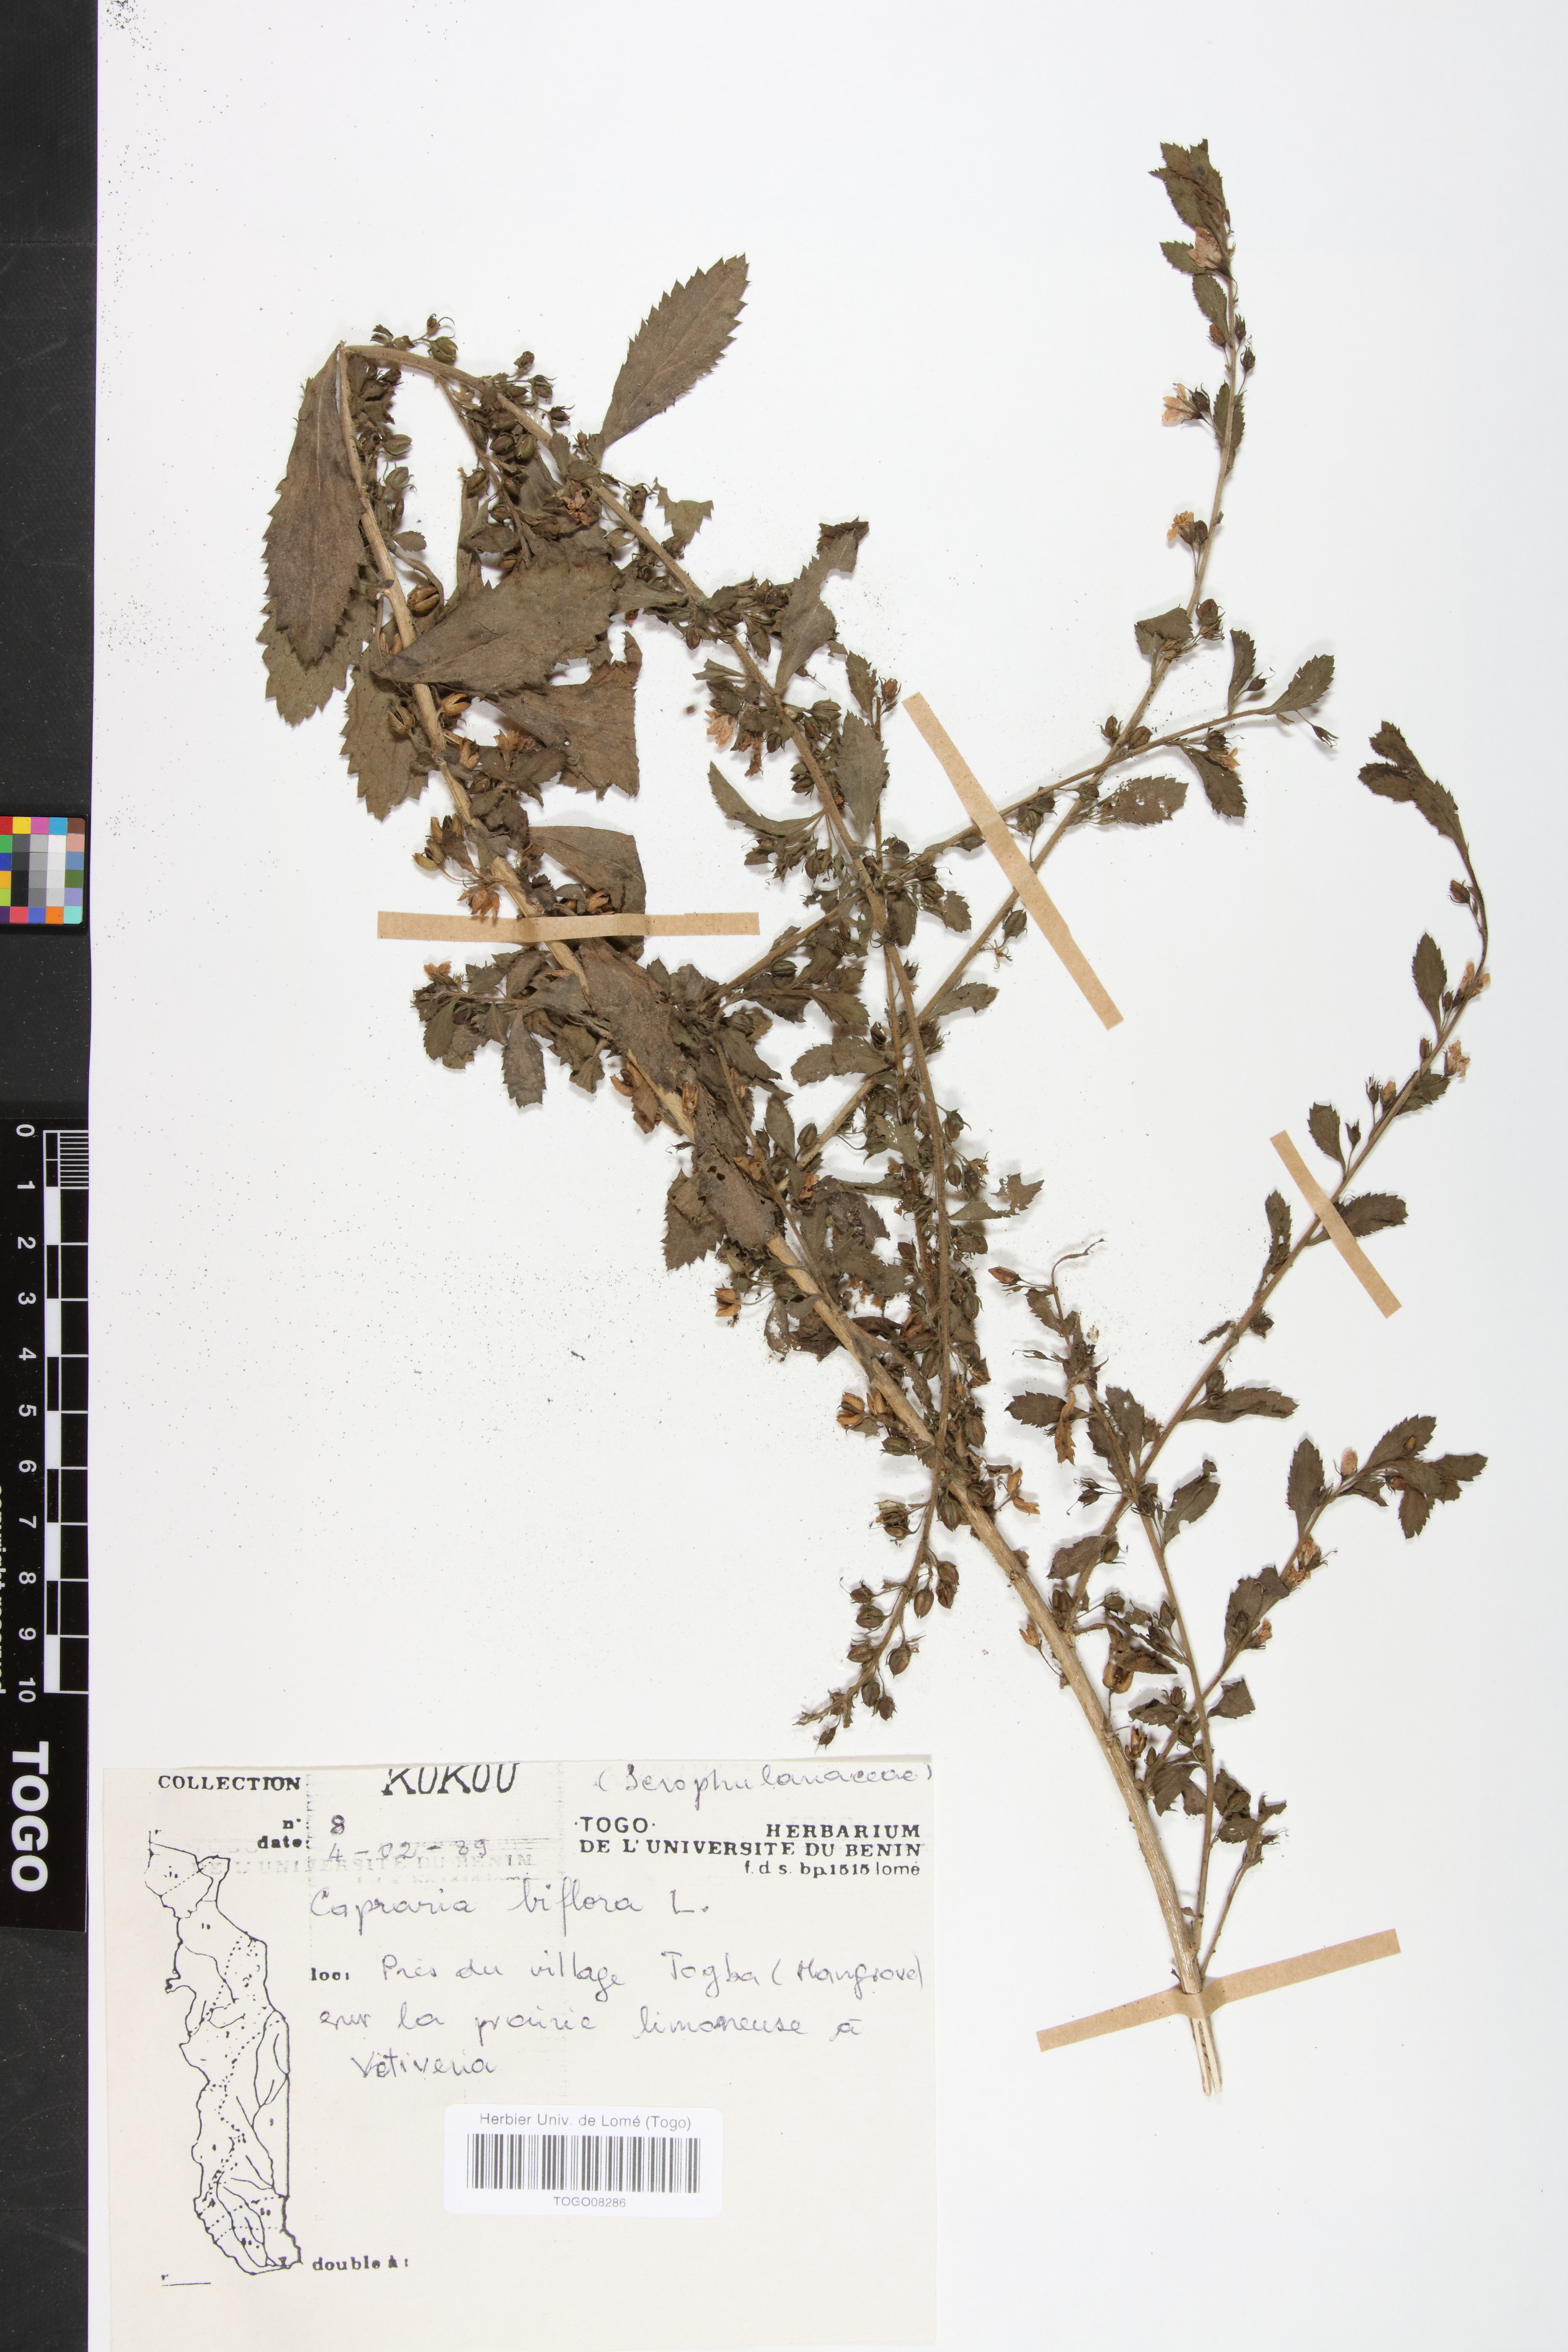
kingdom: Plantae
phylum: Tracheophyta
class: Magnoliopsida
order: Lamiales
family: Scrophulariaceae
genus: Capraria
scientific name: Capraria biflora
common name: Goatweed
